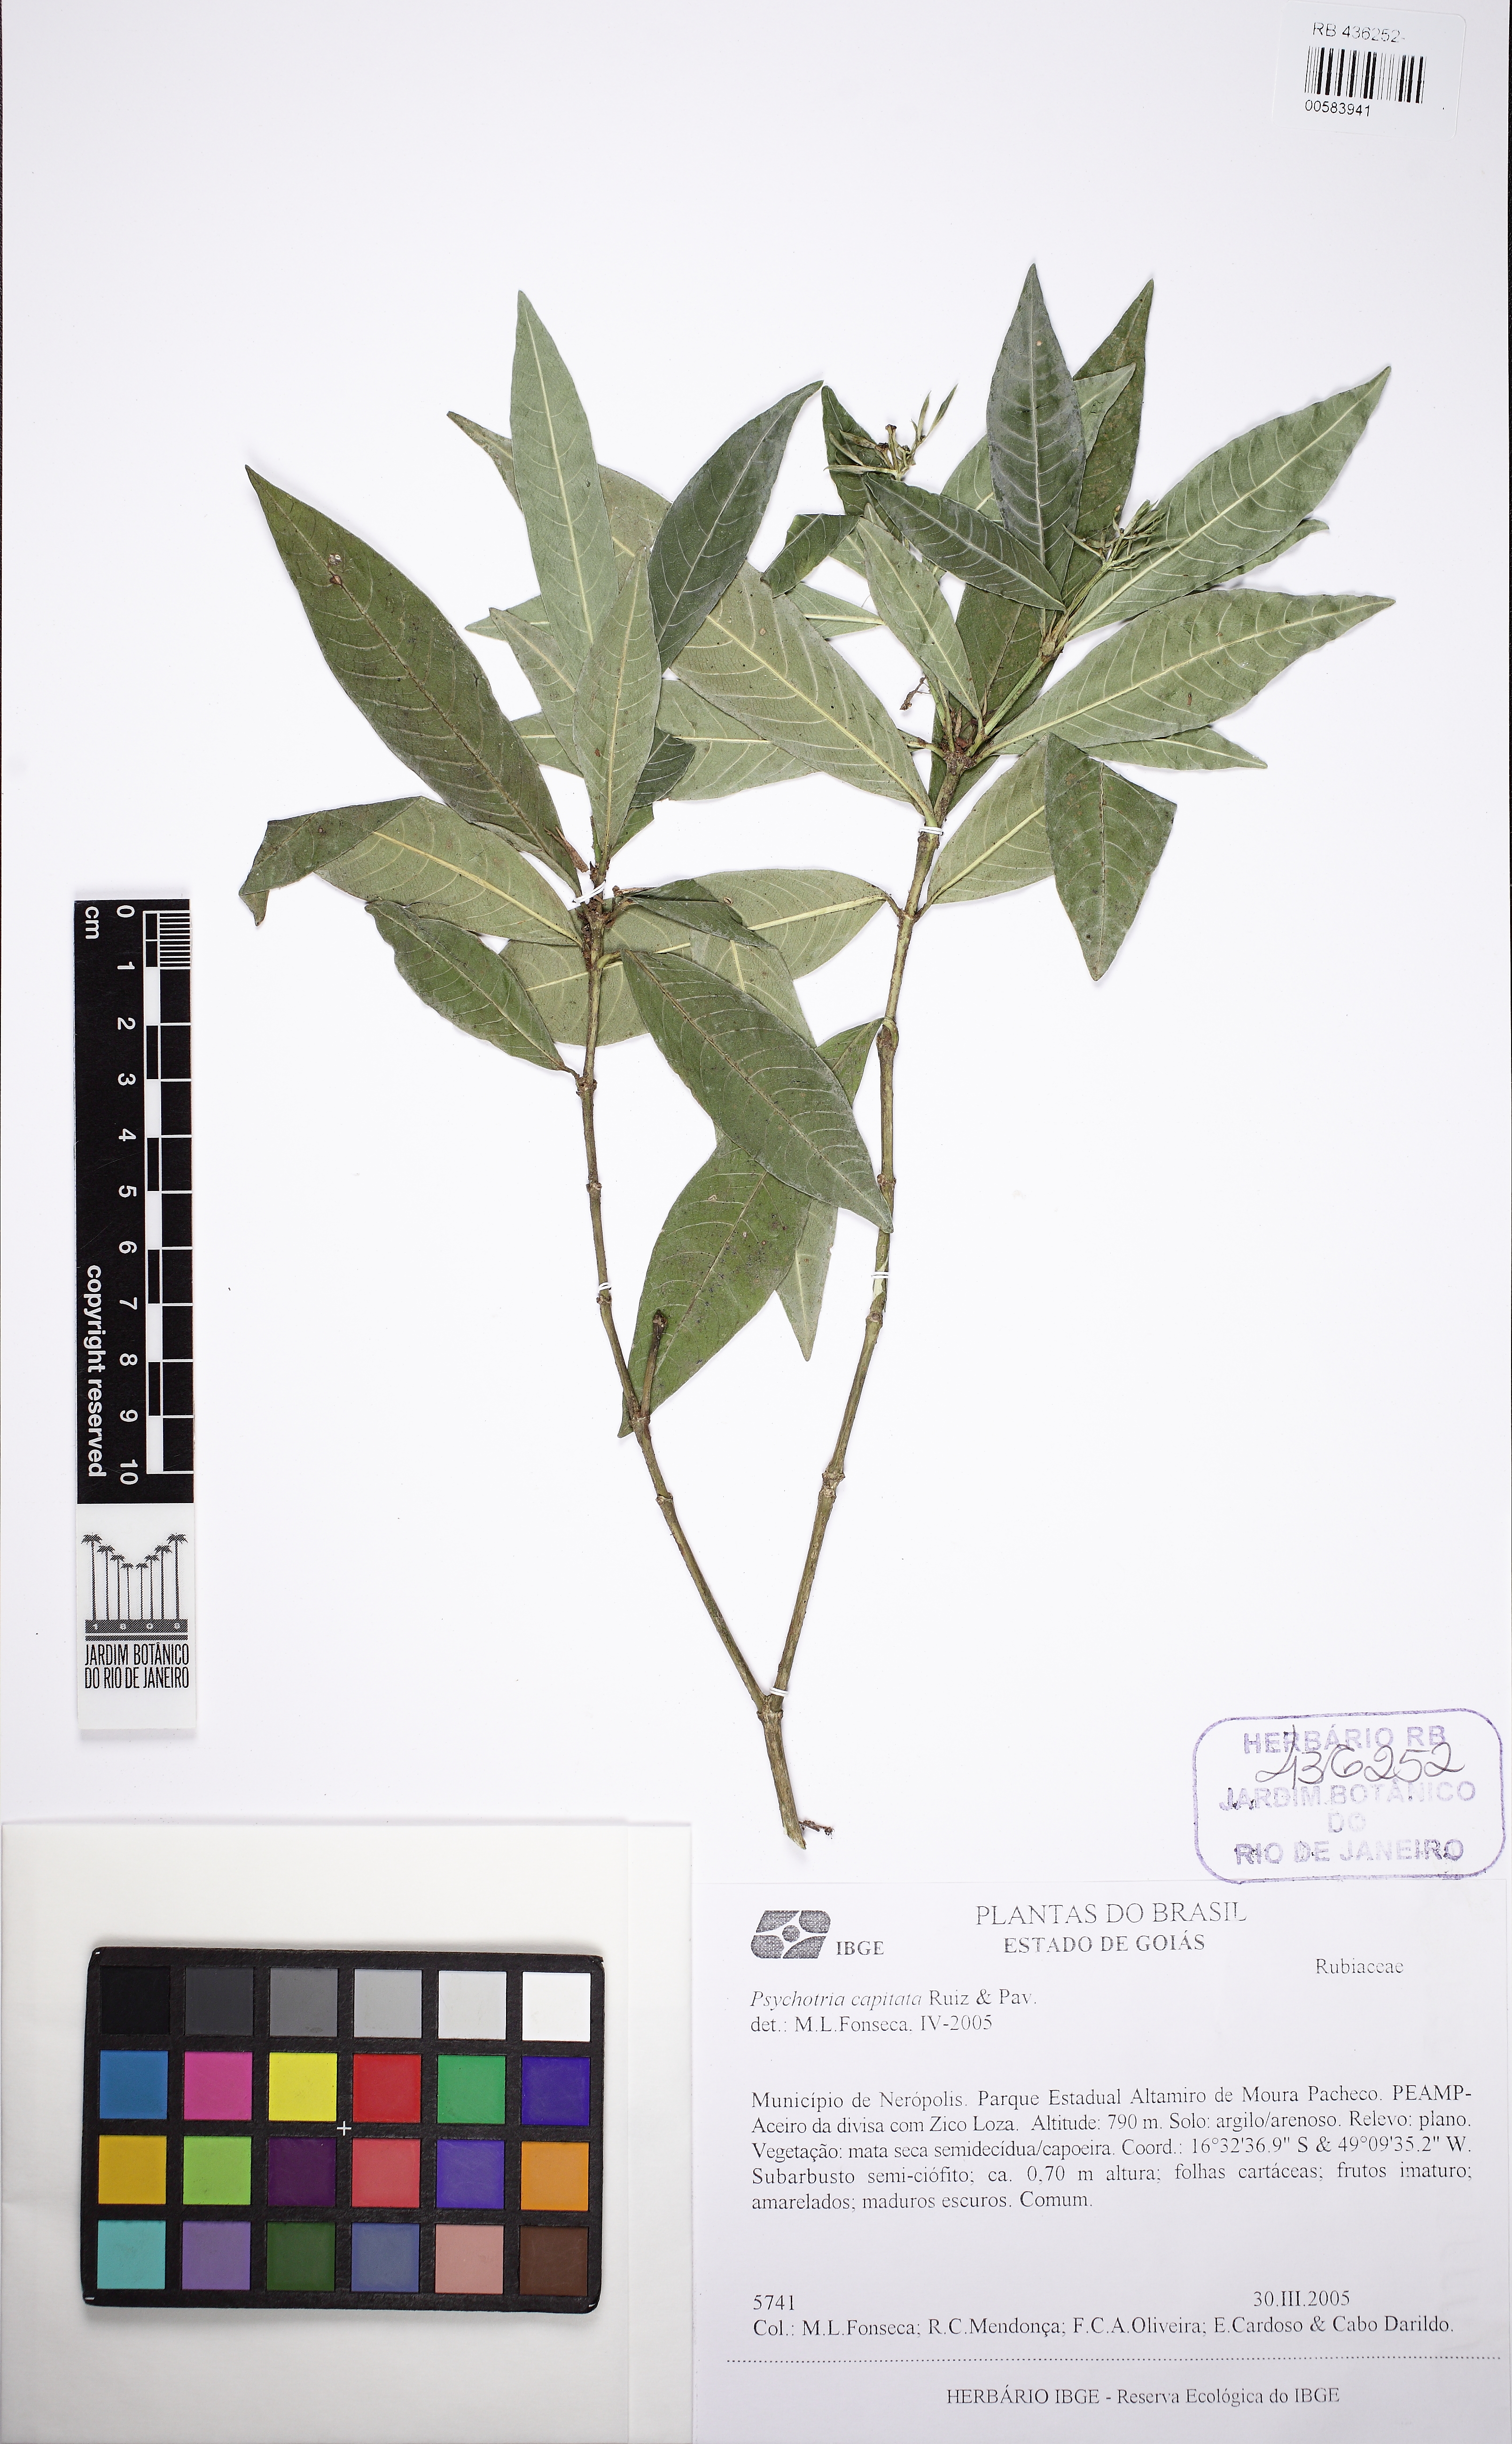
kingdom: Plantae
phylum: Tracheophyta
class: Magnoliopsida
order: Gentianales
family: Rubiaceae
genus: Palicourea
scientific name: Palicourea violacea
